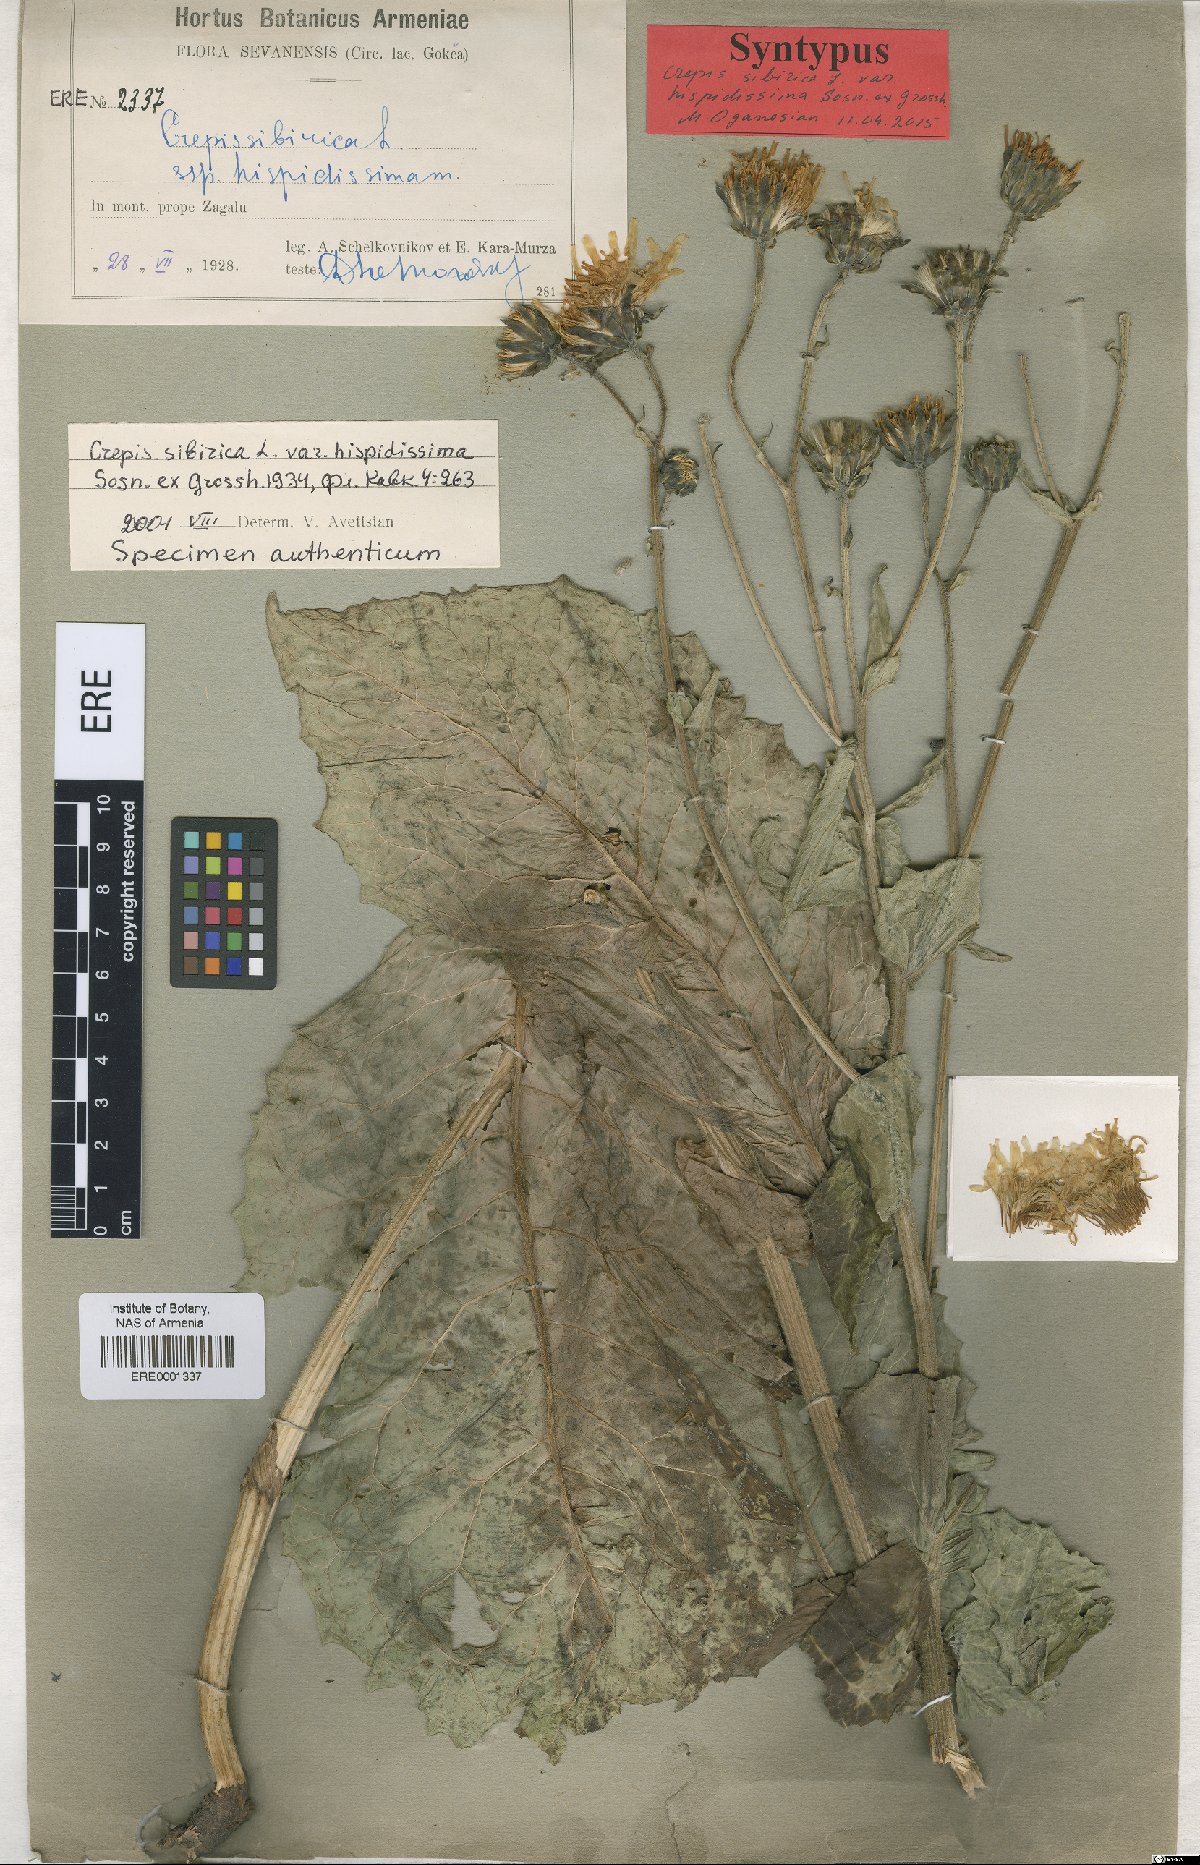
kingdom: Plantae
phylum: Tracheophyta
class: Magnoliopsida
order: Asterales
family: Asteraceae
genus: Crepis
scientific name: Crepis sibirica
